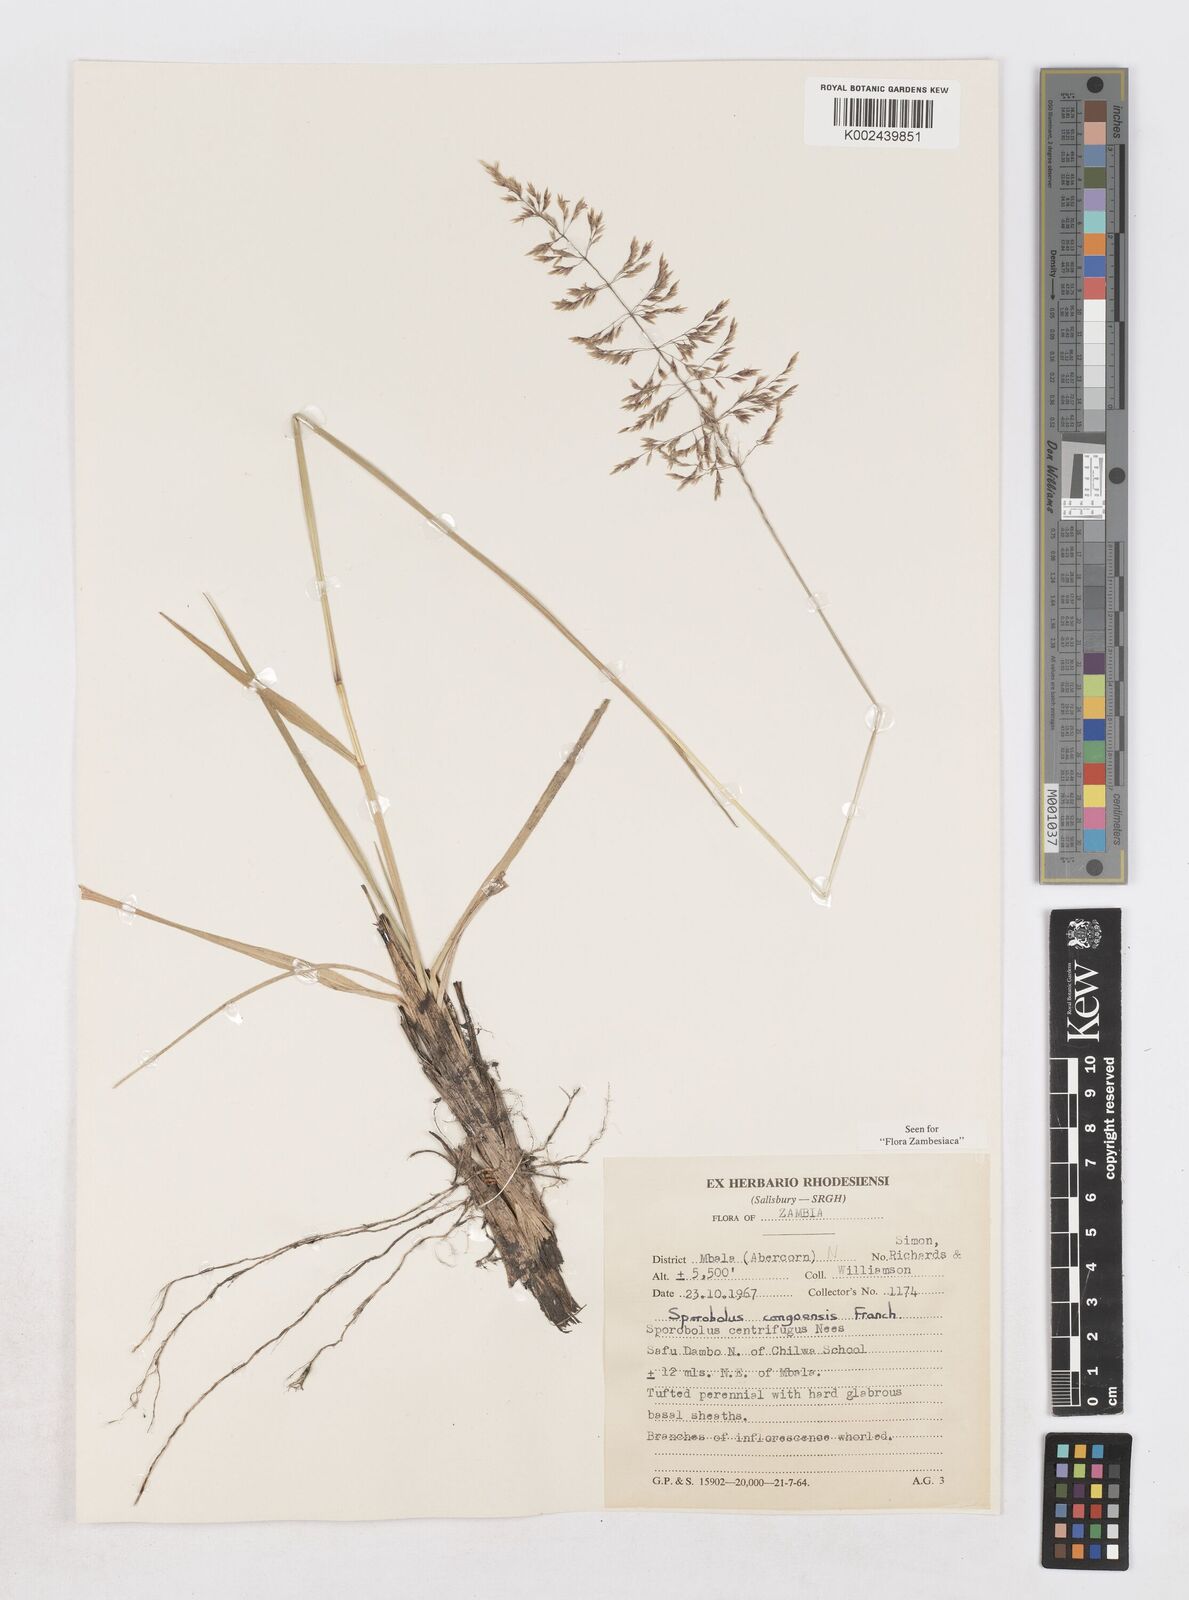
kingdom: Plantae
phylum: Tracheophyta
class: Liliopsida
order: Poales
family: Poaceae
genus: Sporobolus
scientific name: Sporobolus congoensis
